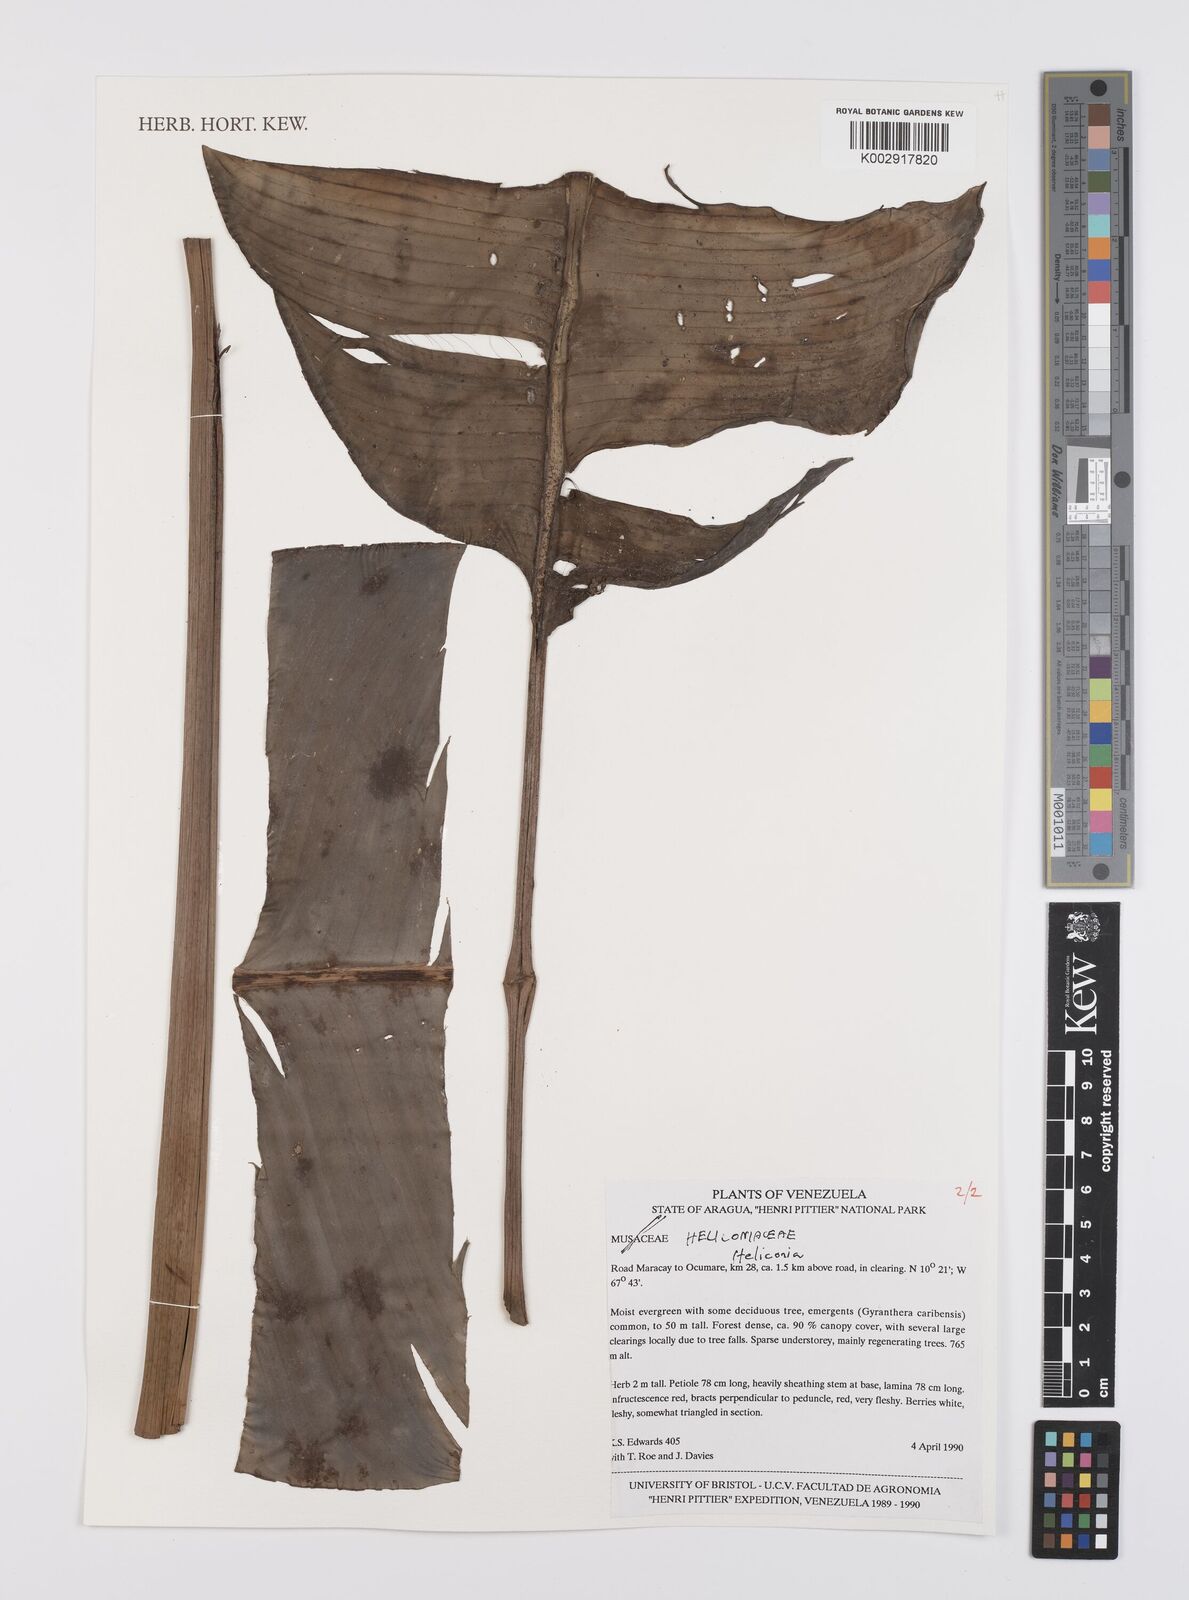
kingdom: Plantae
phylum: Tracheophyta
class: Liliopsida
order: Zingiberales
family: Heliconiaceae
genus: Heliconia
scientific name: Heliconia
